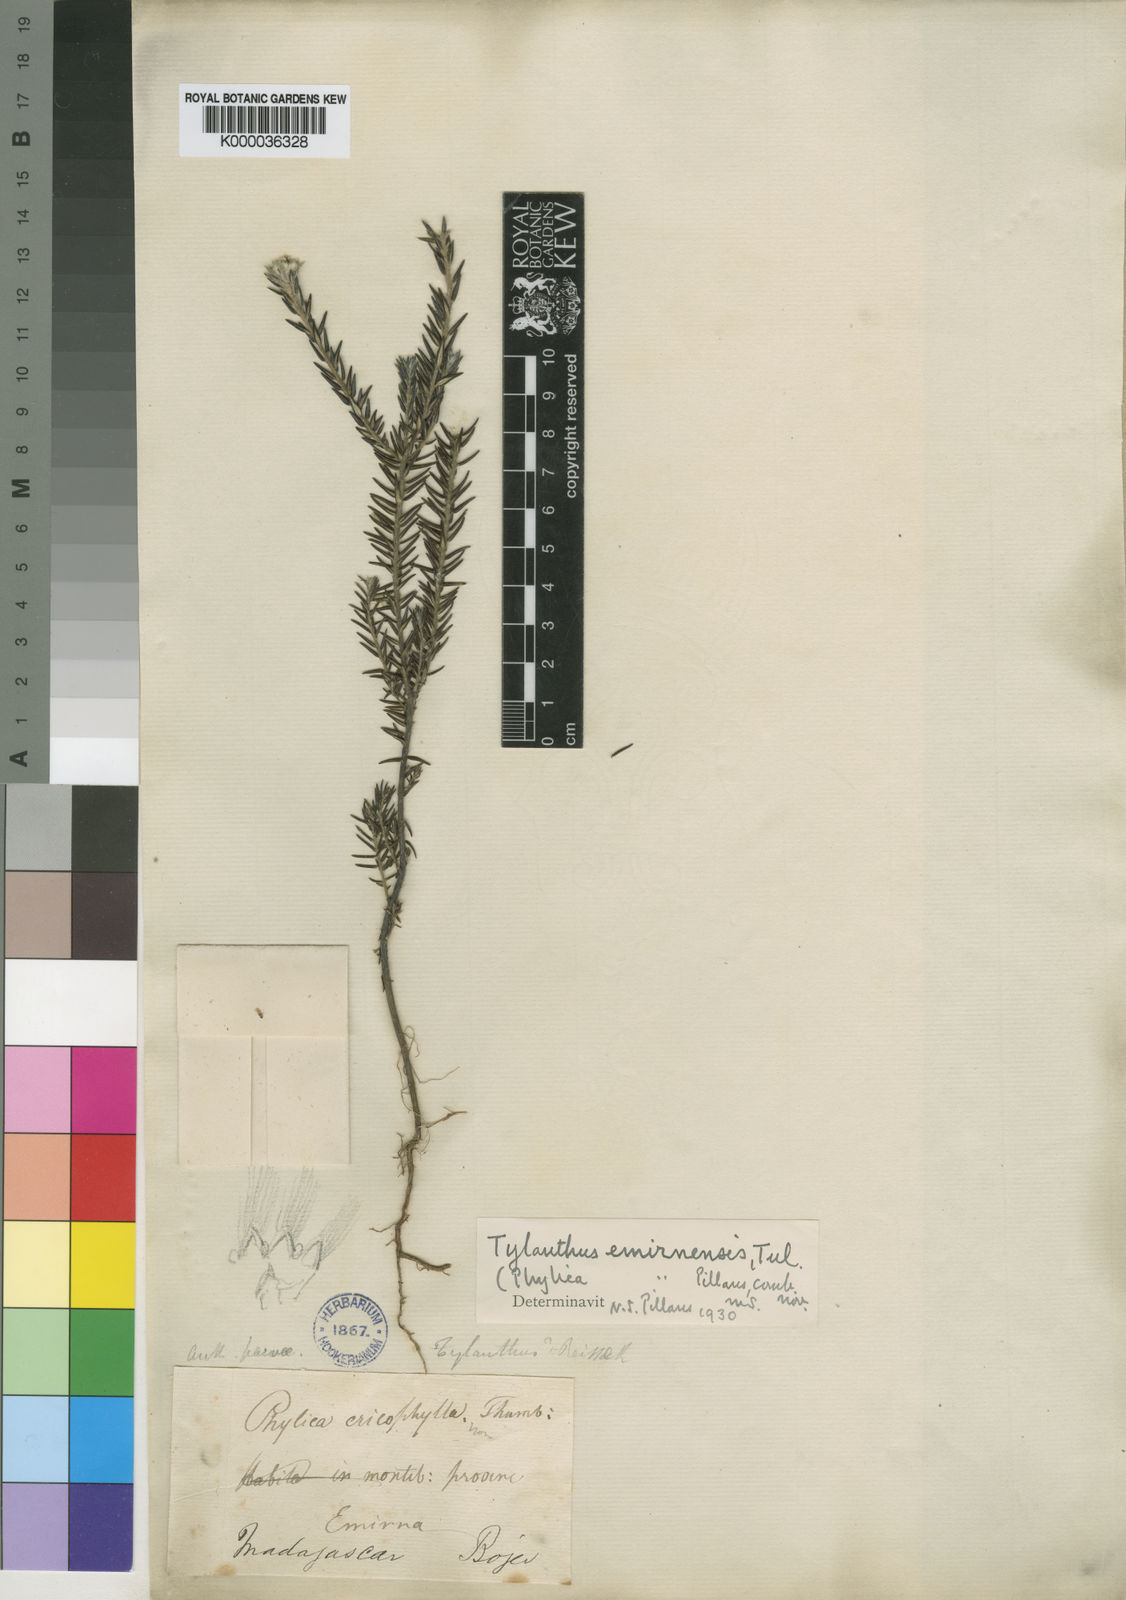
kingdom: Plantae
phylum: Tracheophyta
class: Magnoliopsida
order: Rosales
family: Rhamnaceae
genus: Phylica
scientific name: Phylica emirnensis
